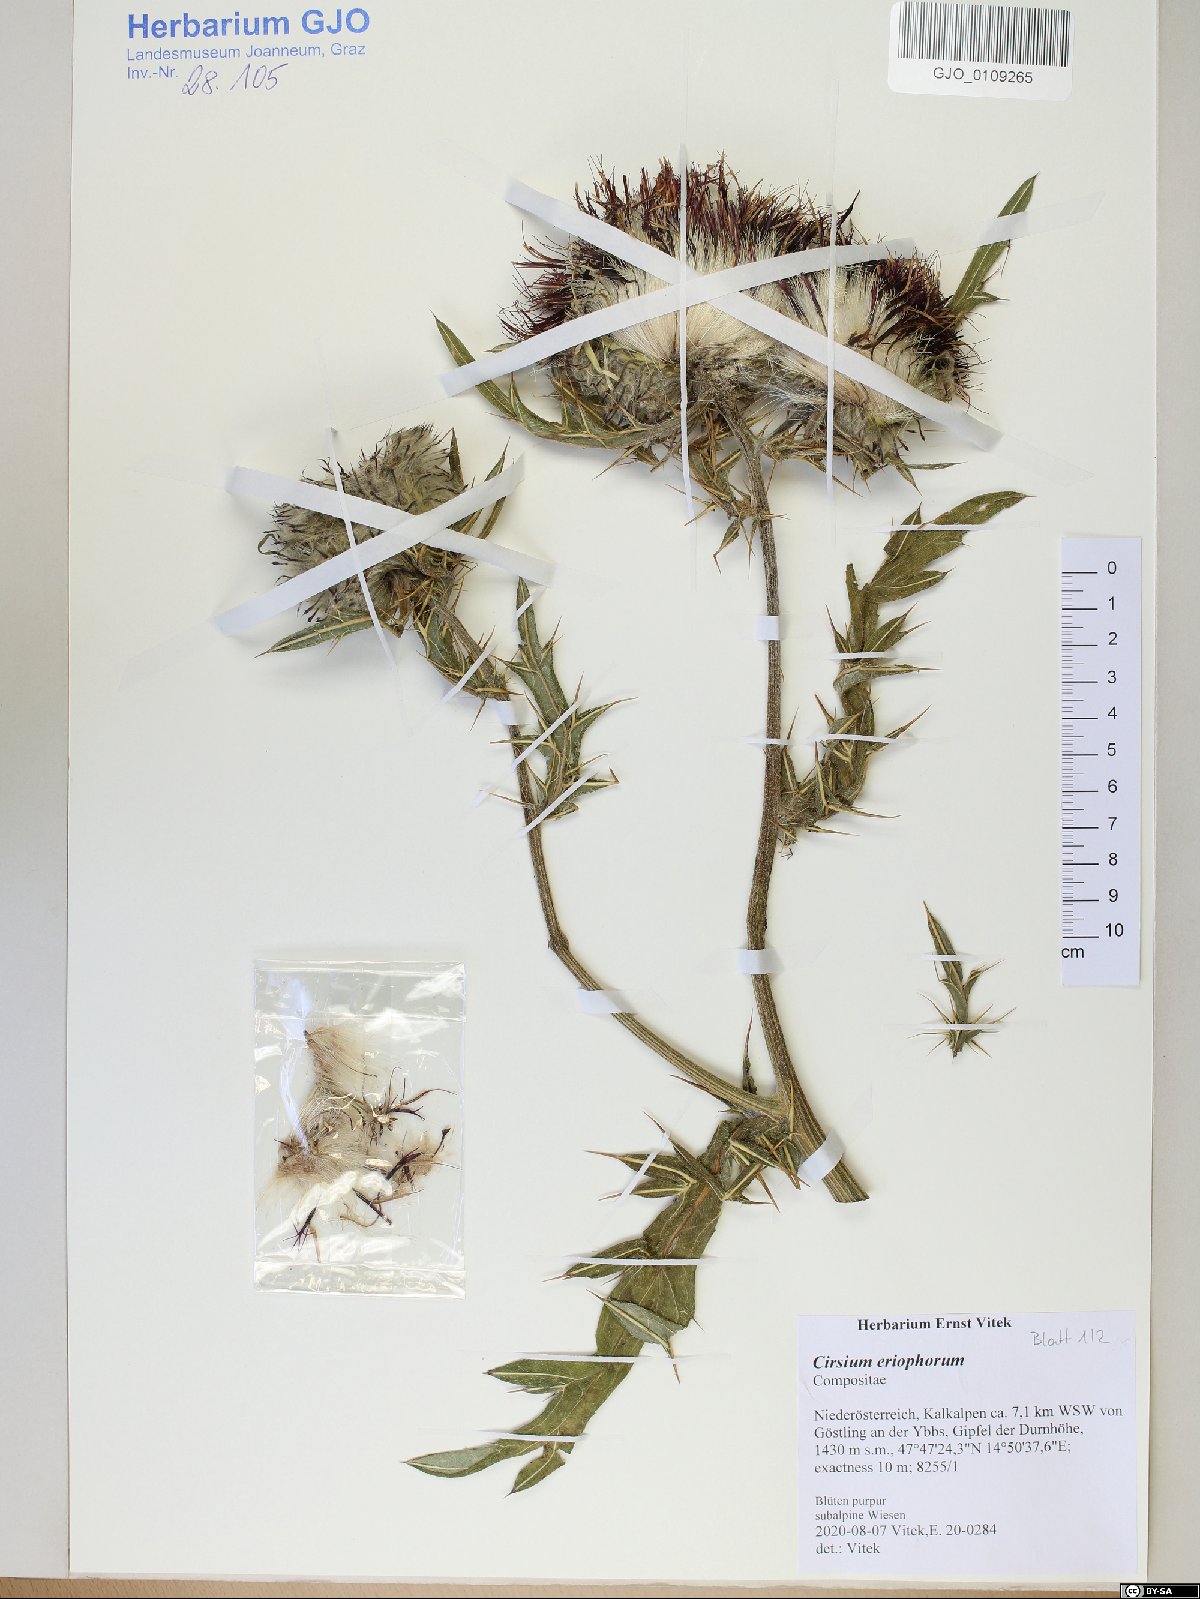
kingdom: Plantae
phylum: Tracheophyta
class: Magnoliopsida
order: Asterales
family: Asteraceae
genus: Lophiolepis
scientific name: Lophiolepis eriophora
